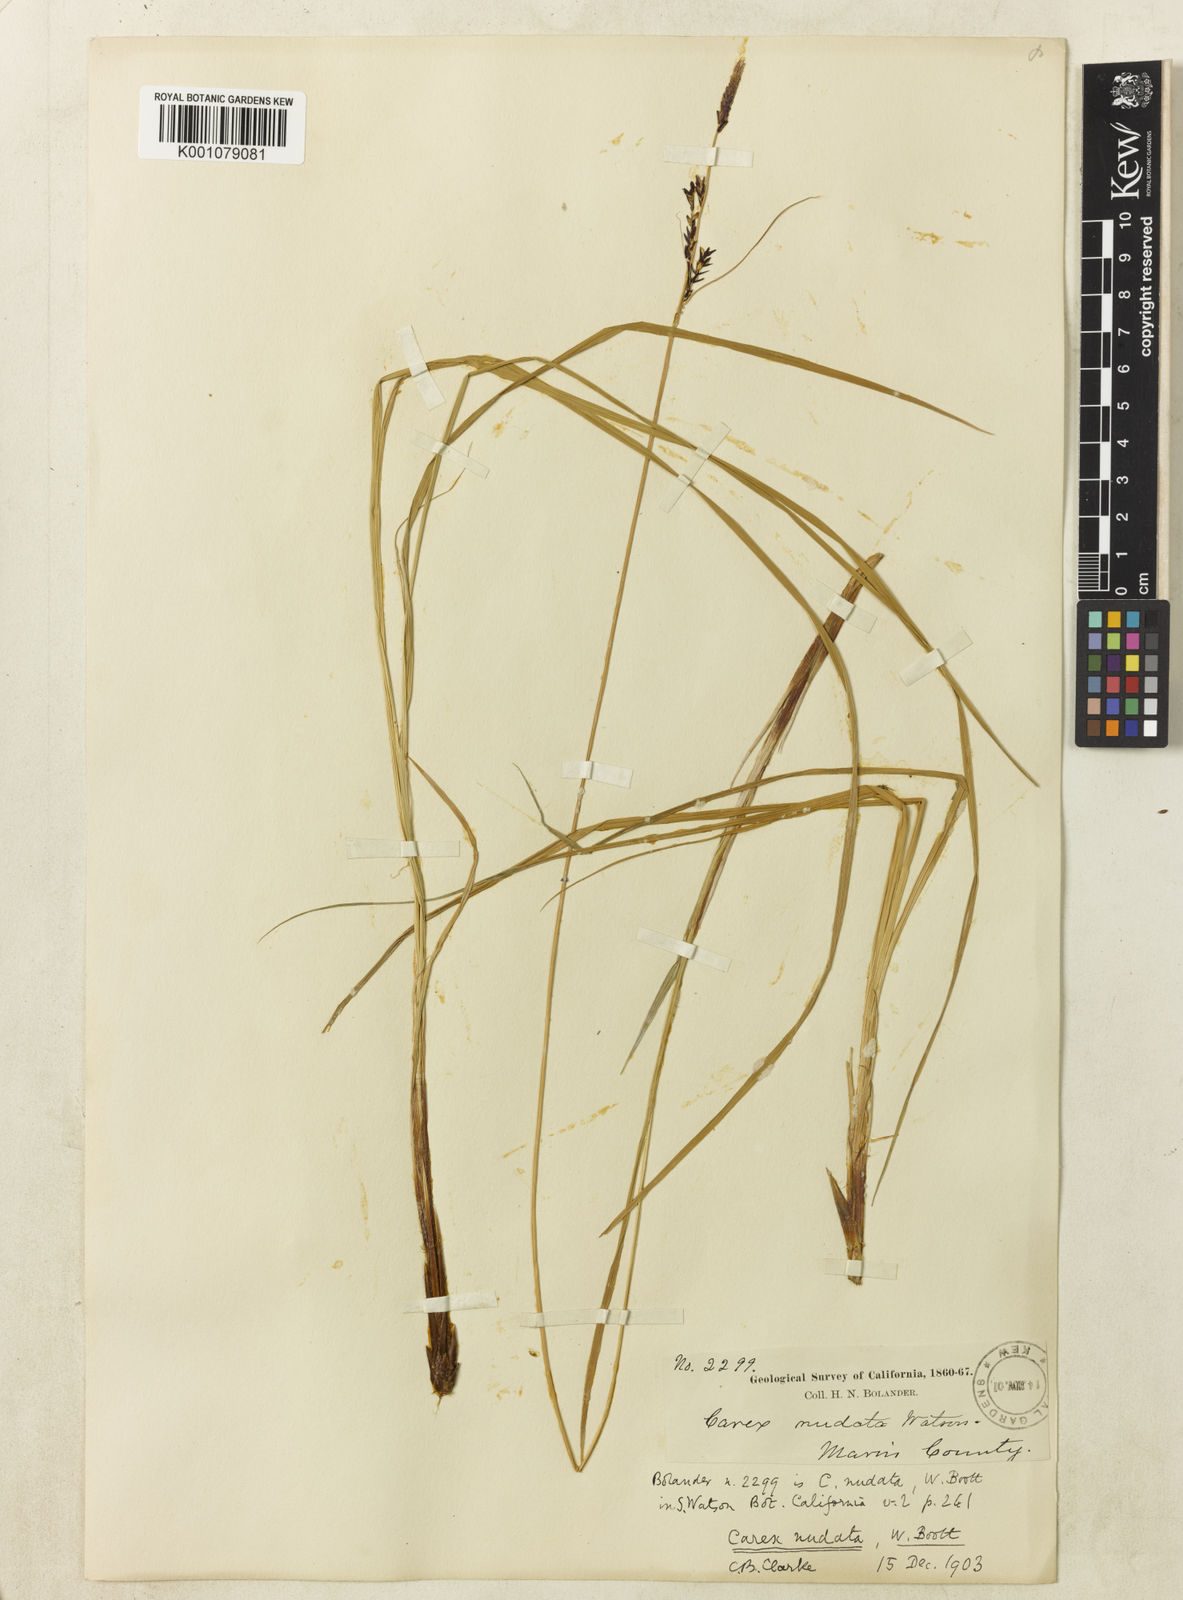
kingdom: Plantae
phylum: Tracheophyta
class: Liliopsida
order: Poales
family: Cyperaceae
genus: Carex
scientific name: Carex
